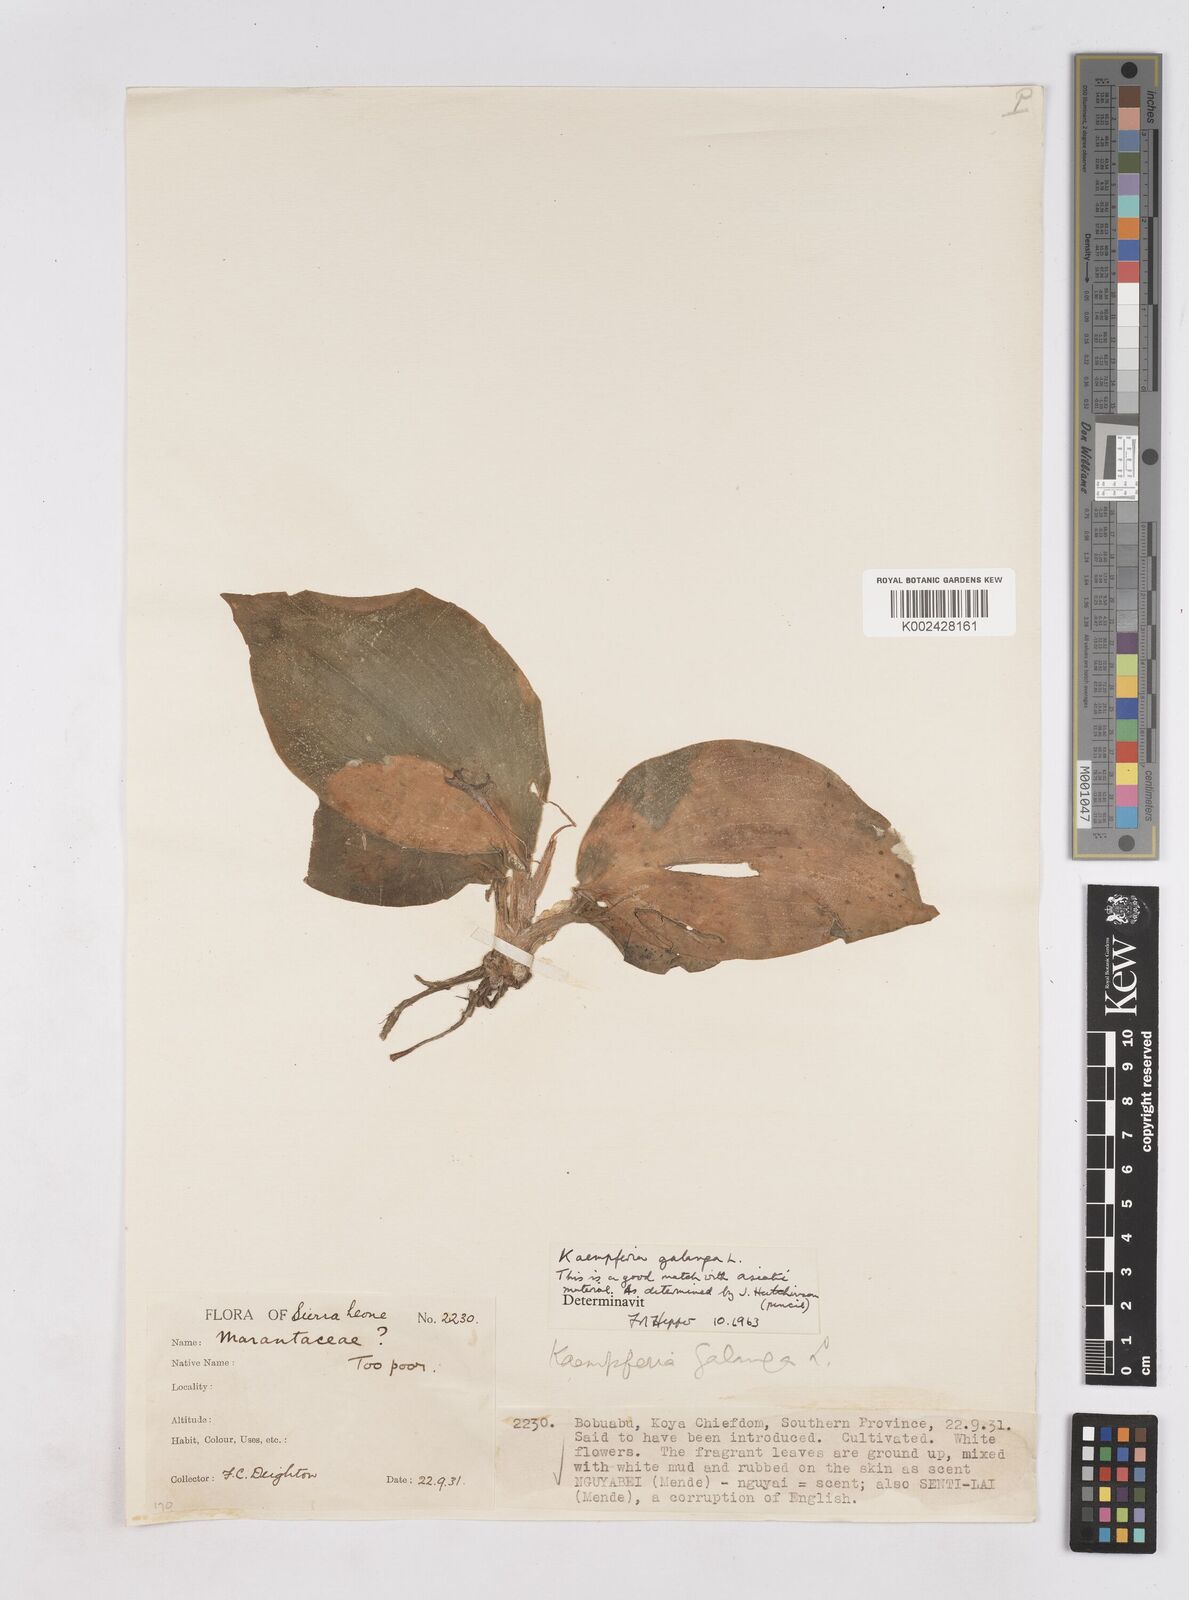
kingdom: Plantae
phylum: Tracheophyta
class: Liliopsida
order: Zingiberales
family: Zingiberaceae
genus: Kaempferia
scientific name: Kaempferia galanga
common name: Aromatic ginger
